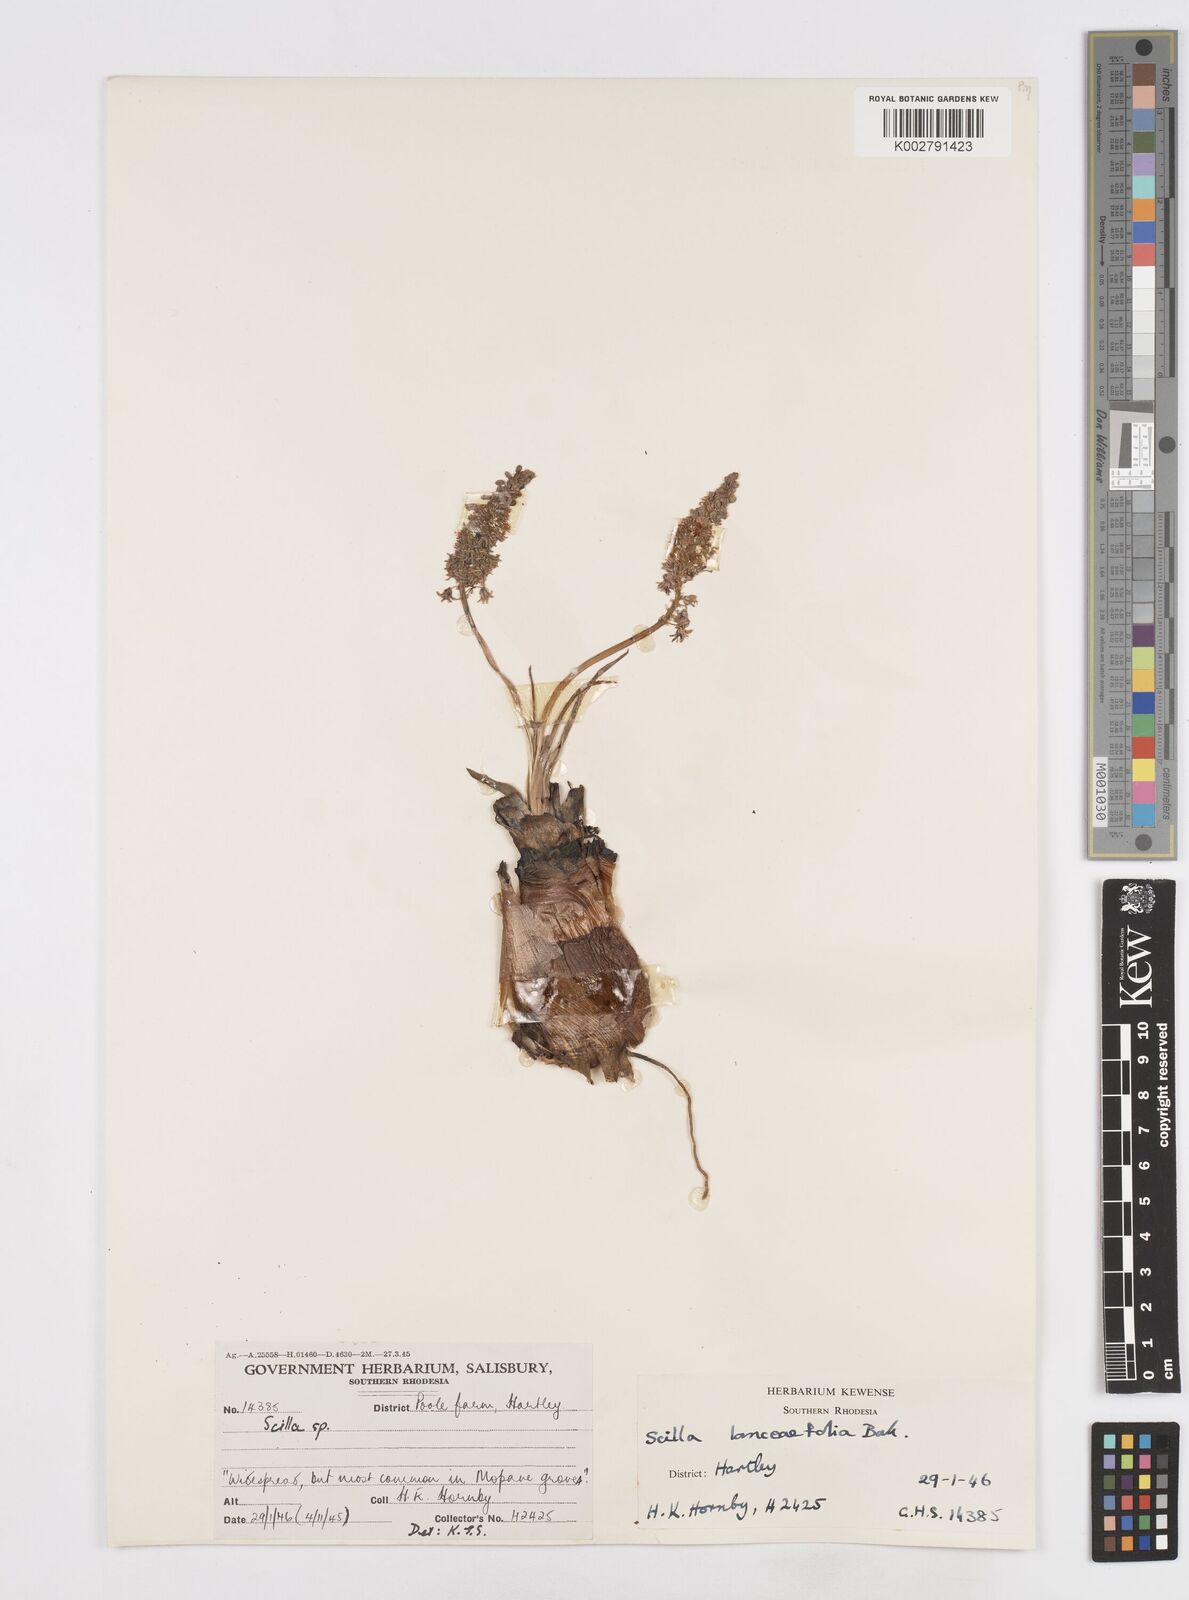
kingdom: Plantae
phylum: Tracheophyta
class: Liliopsida
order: Asparagales
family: Asparagaceae
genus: Ledebouria
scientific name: Ledebouria revoluta
